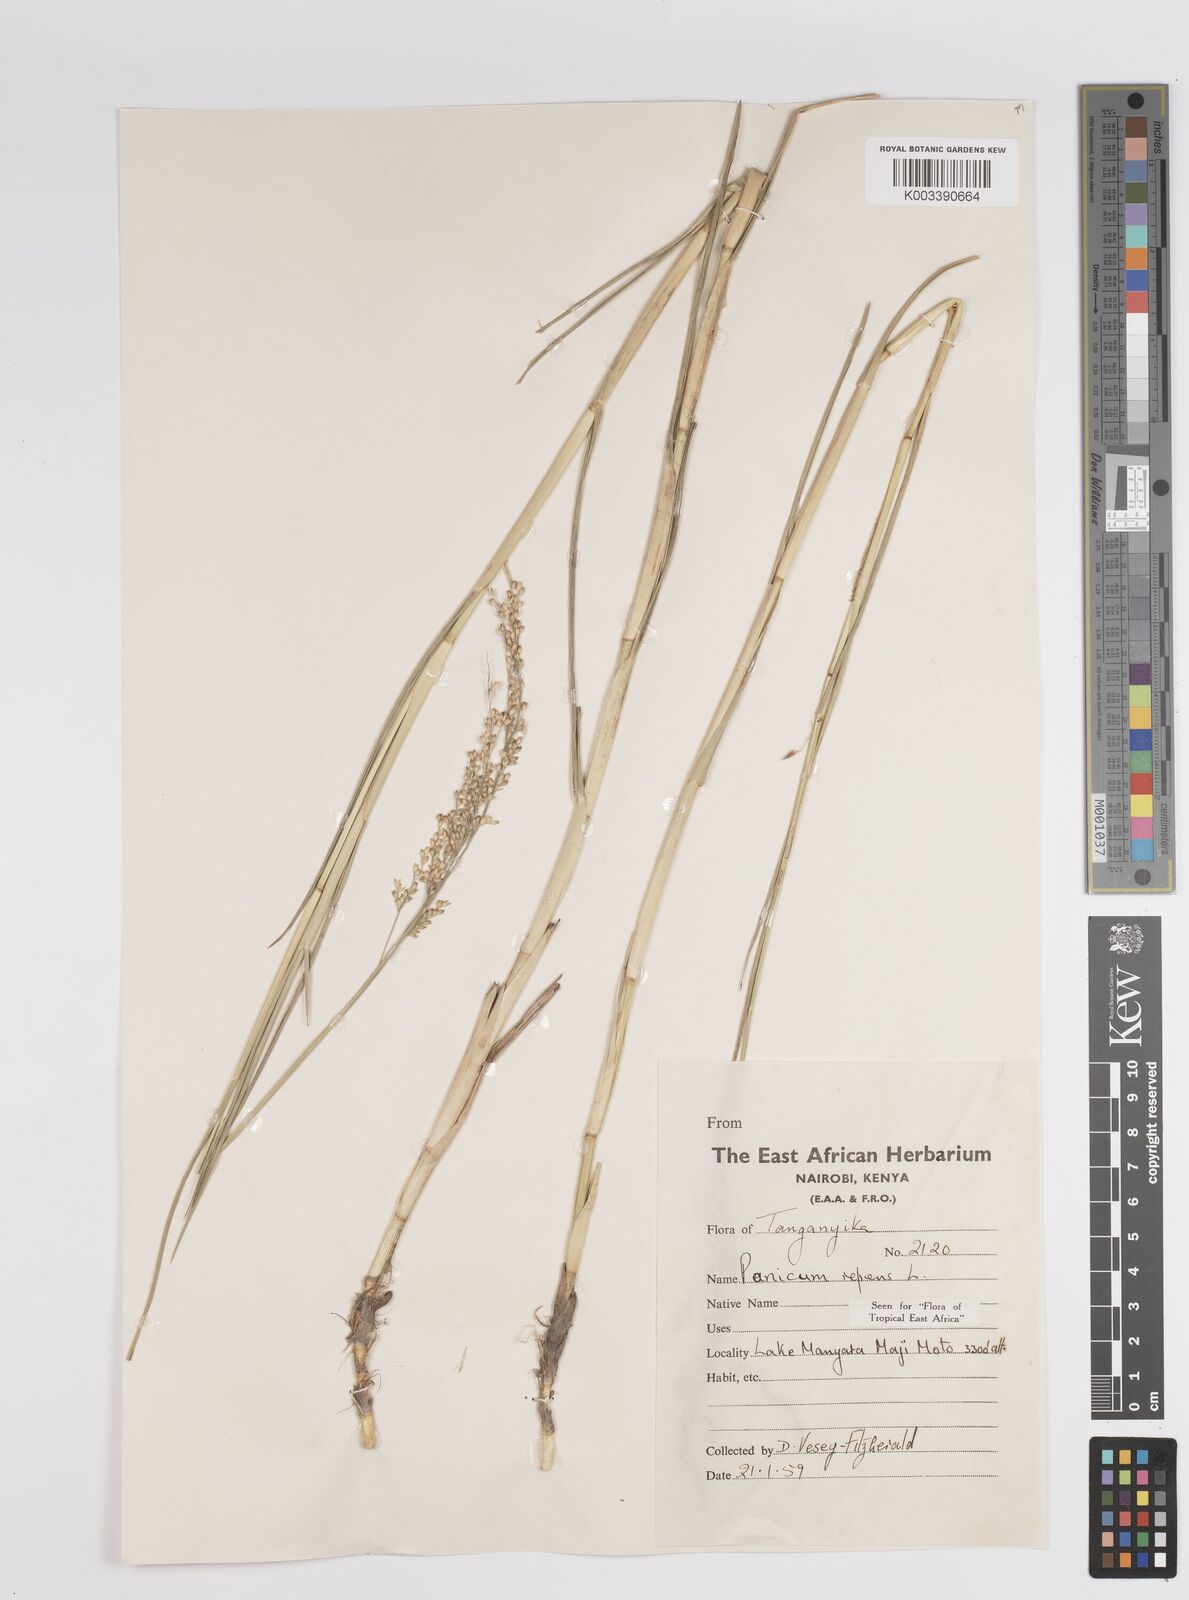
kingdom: Plantae
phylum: Tracheophyta
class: Liliopsida
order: Poales
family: Poaceae
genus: Panicum
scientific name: Panicum repens
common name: Torpedo grass
